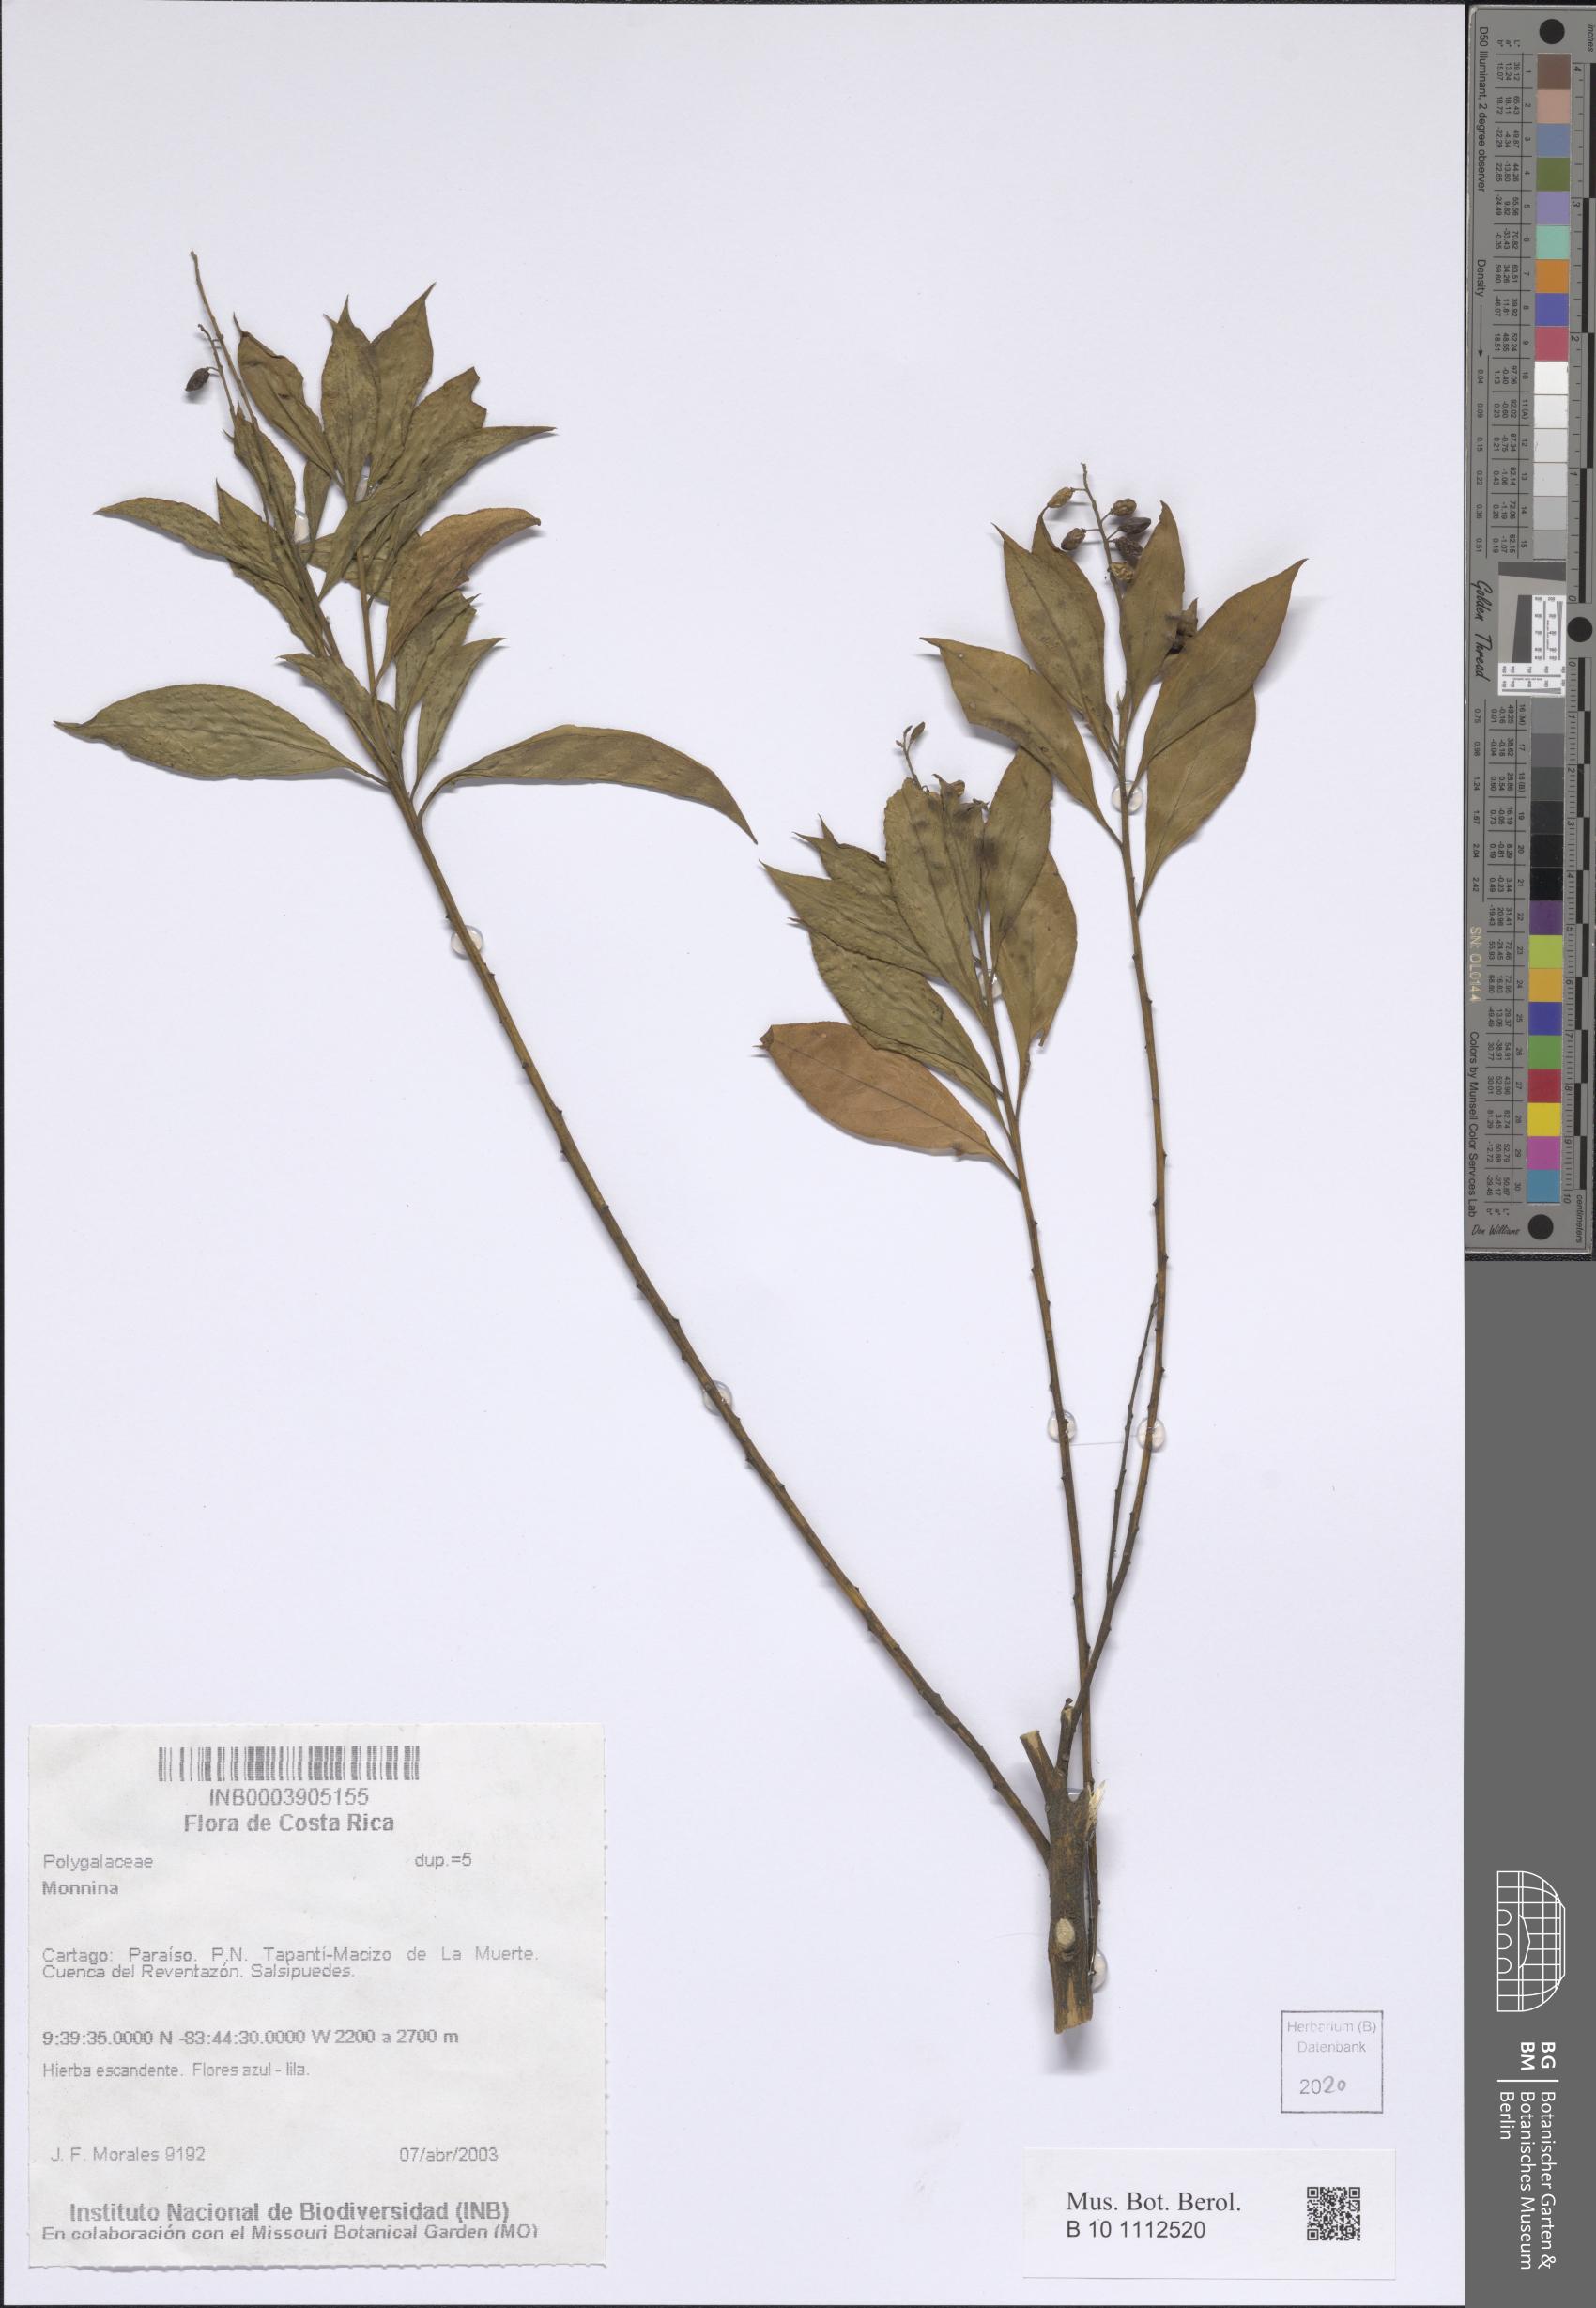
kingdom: Plantae
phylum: Tracheophyta
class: Magnoliopsida
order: Fabales
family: Polygalaceae
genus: Monnina
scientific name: Monnina
